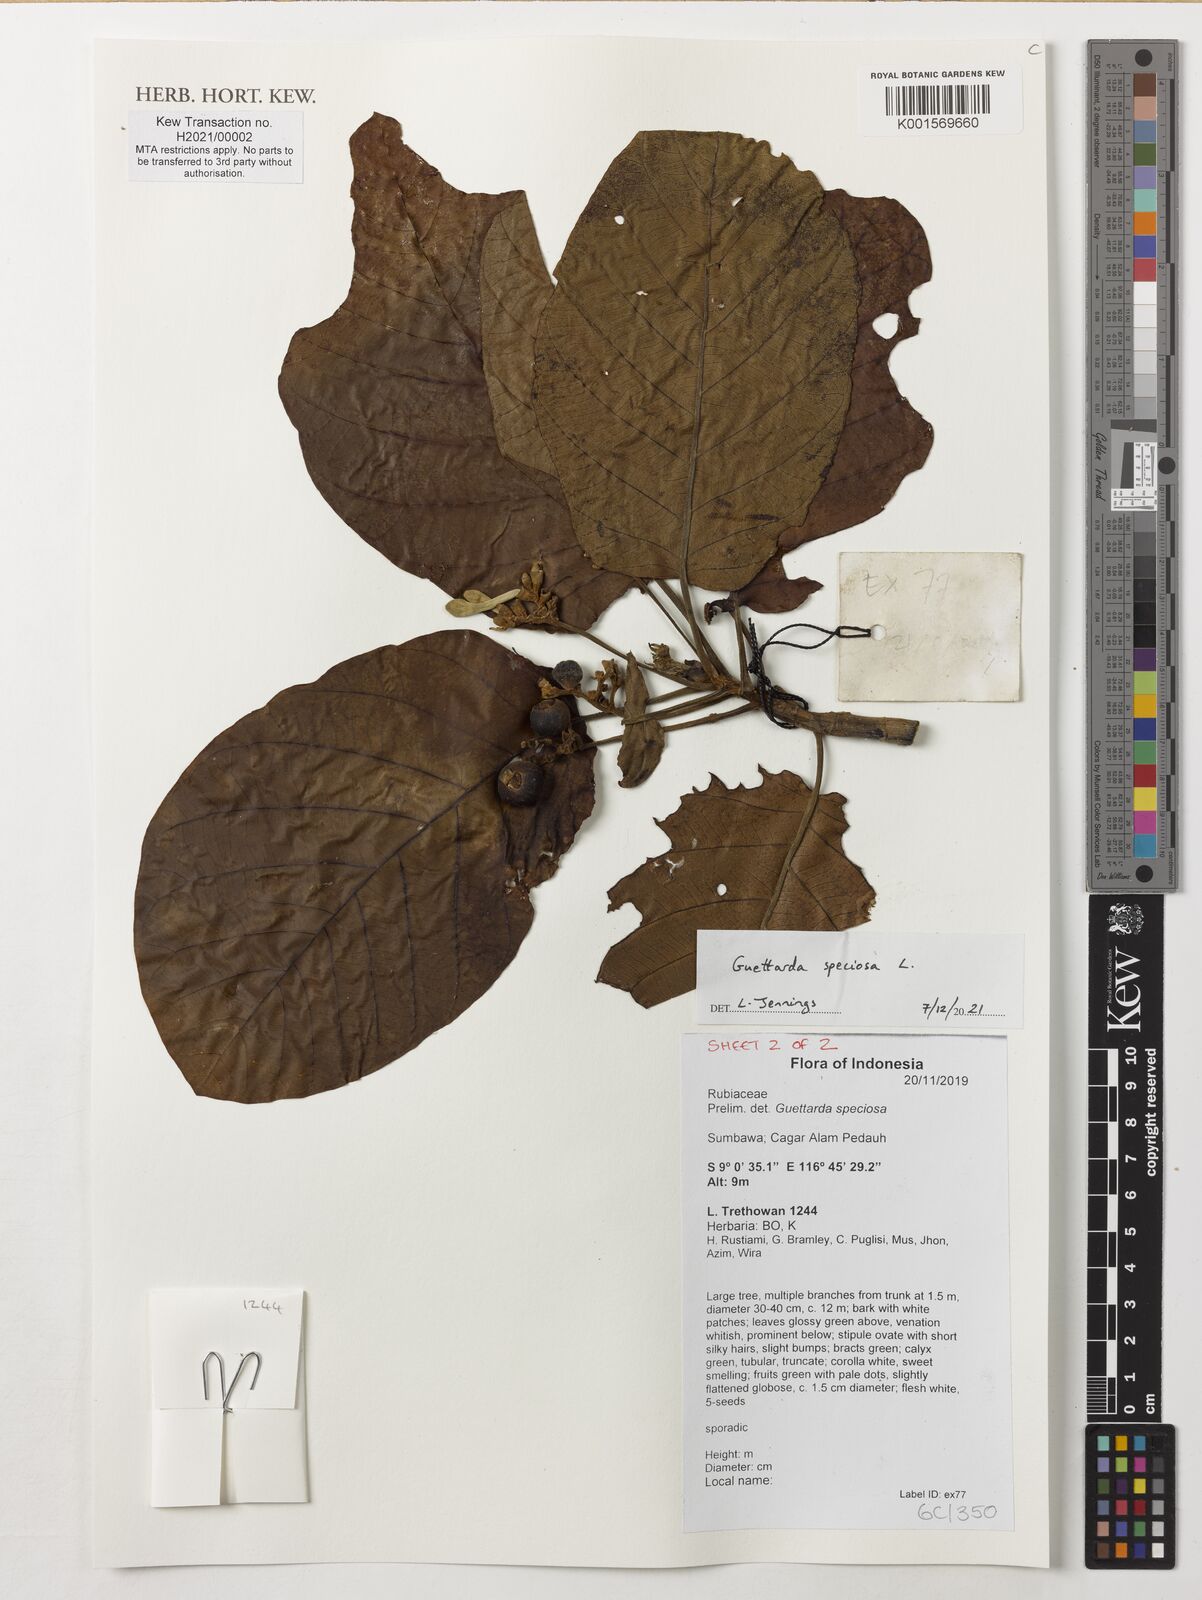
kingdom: Plantae
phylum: Tracheophyta
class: Magnoliopsida
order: Gentianales
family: Rubiaceae
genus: Guettarda
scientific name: Guettarda speciosa
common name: Sea randa
